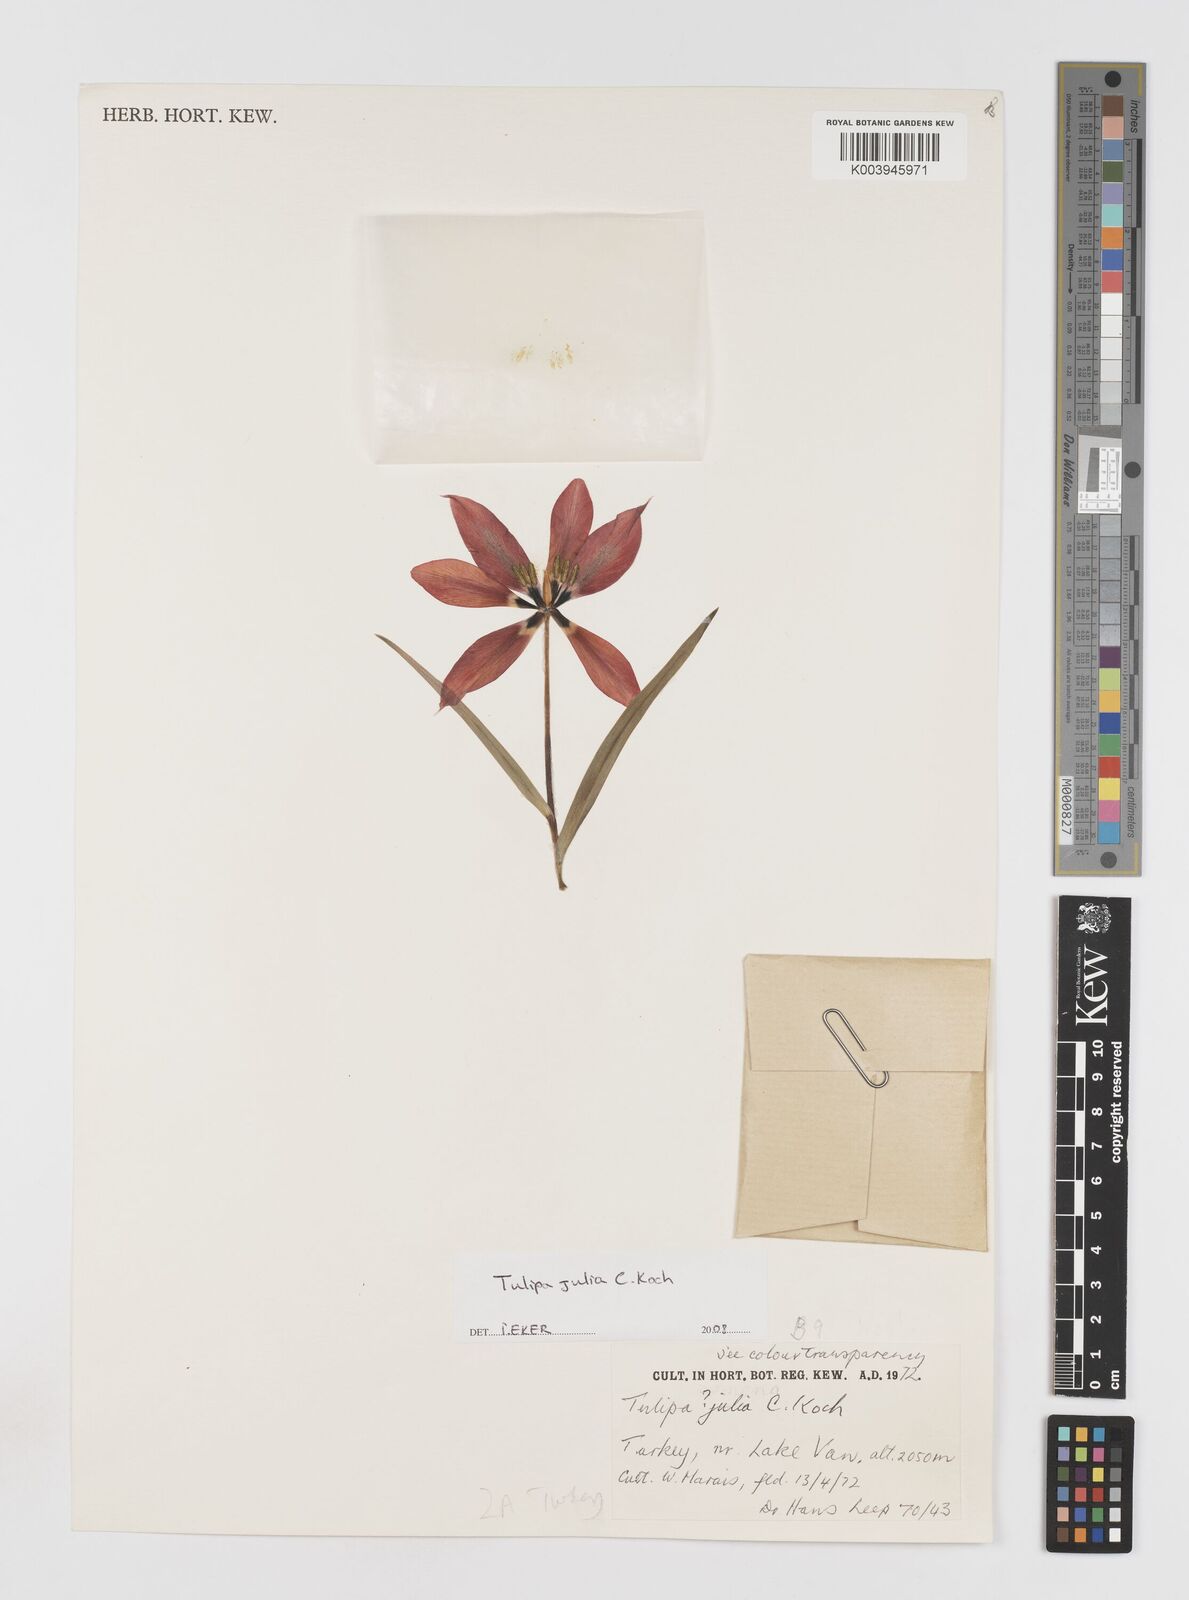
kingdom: Plantae
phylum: Tracheophyta
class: Liliopsida
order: Liliales
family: Liliaceae
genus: Tulipa
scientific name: Tulipa julia
